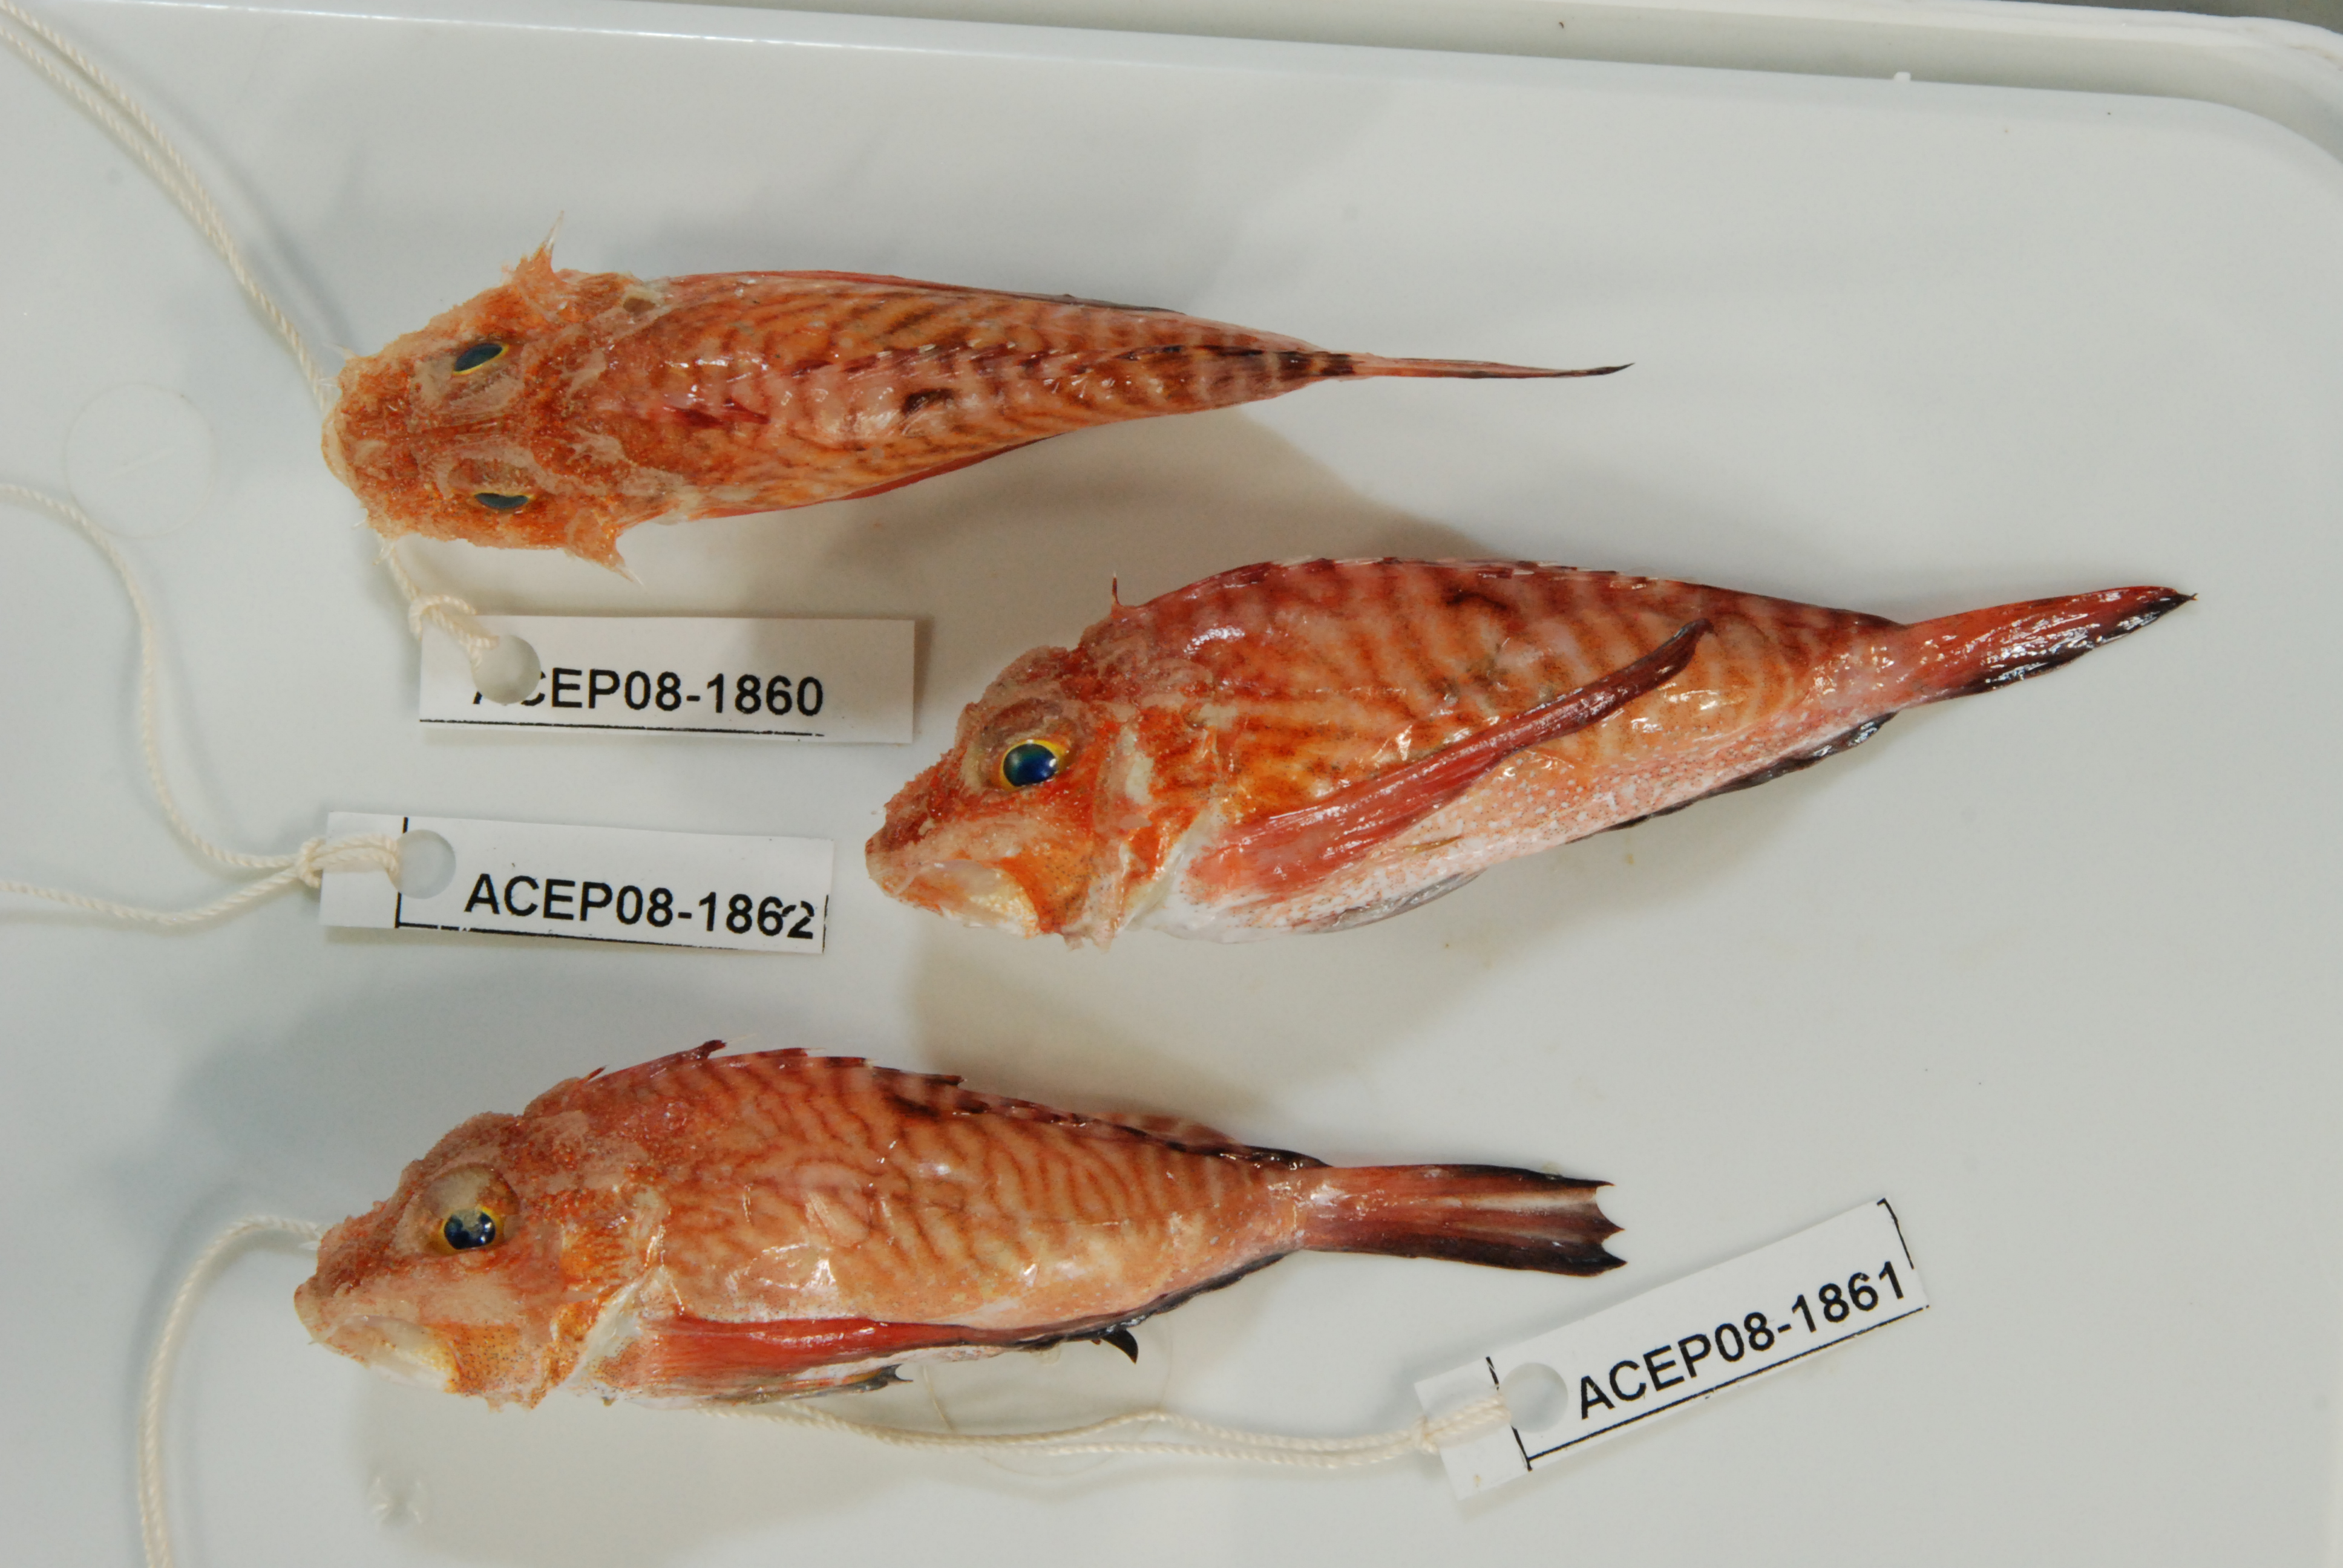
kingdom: Animalia
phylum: Chordata
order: Scorpaeniformes
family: Synanceiidae
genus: Minous
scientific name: Minous longimanus
